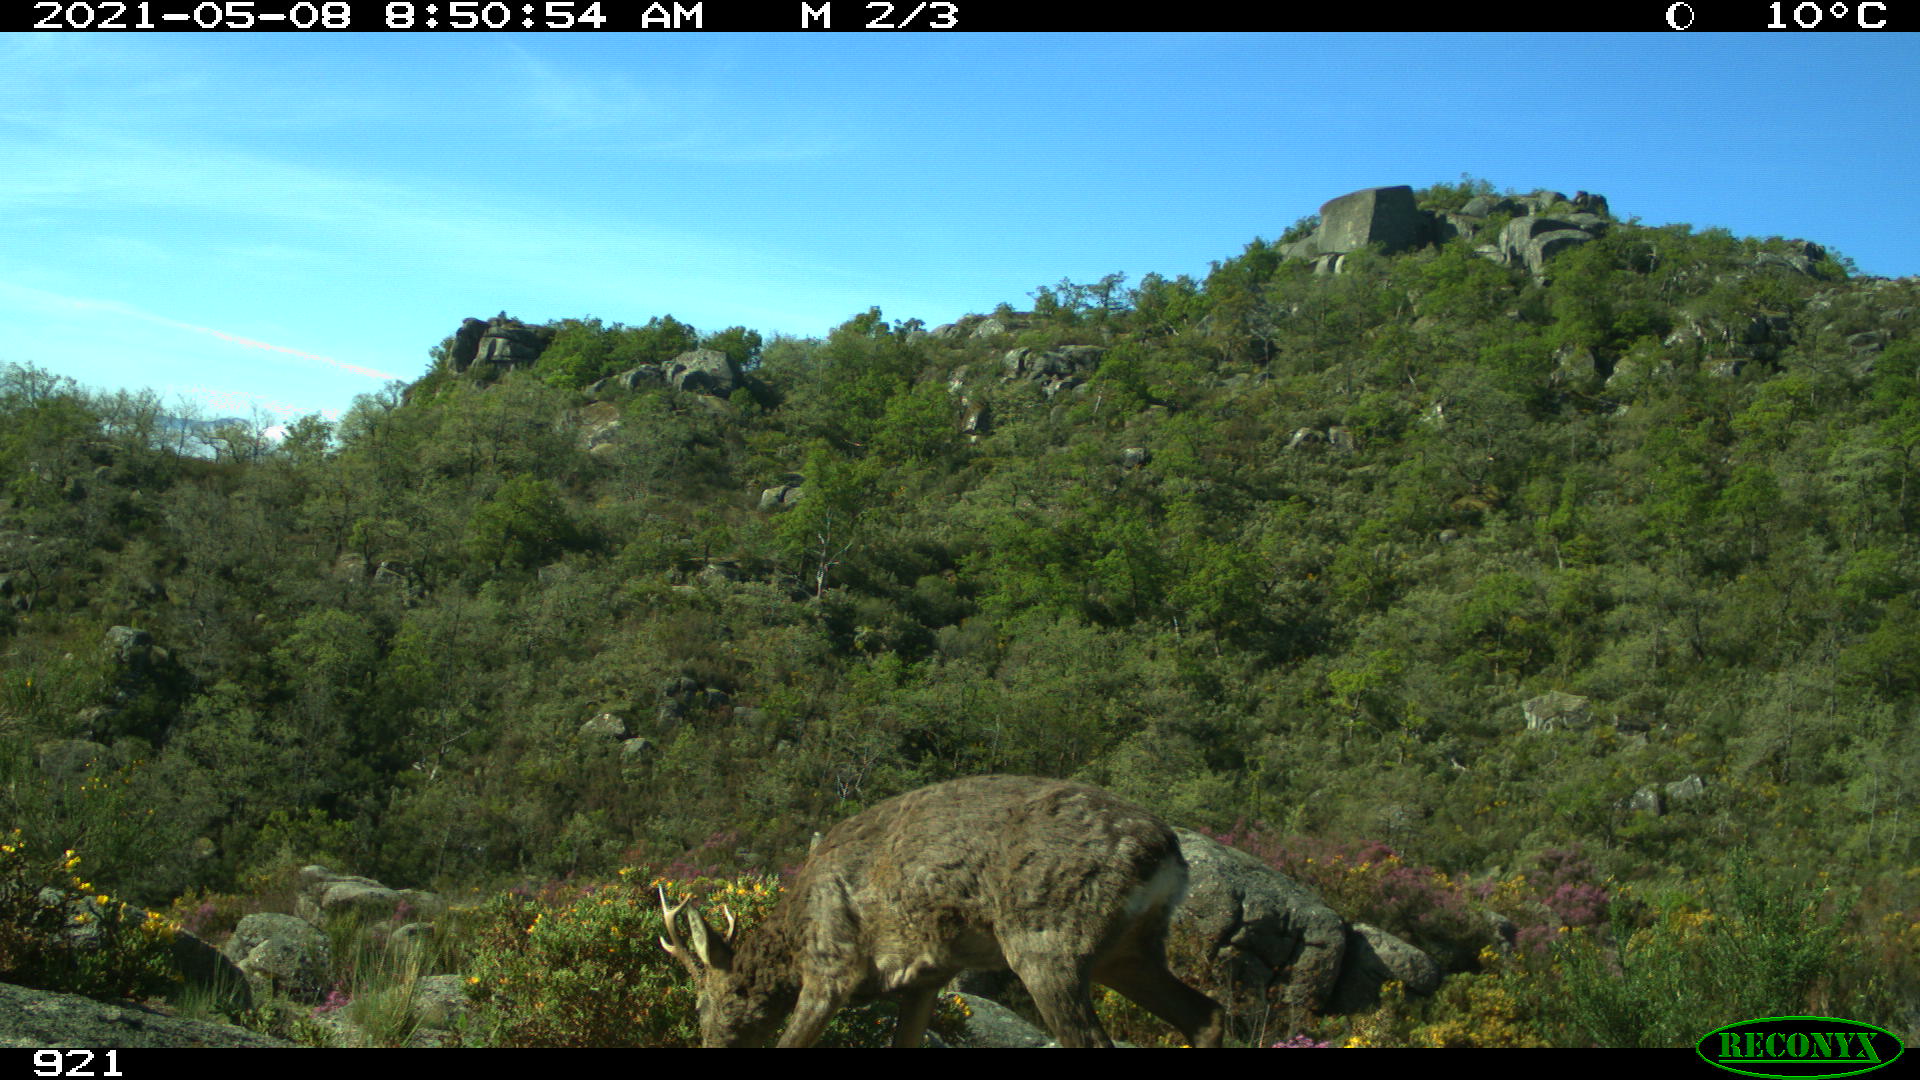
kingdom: Animalia
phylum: Chordata
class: Mammalia
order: Artiodactyla
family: Cervidae
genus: Capreolus
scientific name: Capreolus capreolus
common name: Western roe deer
